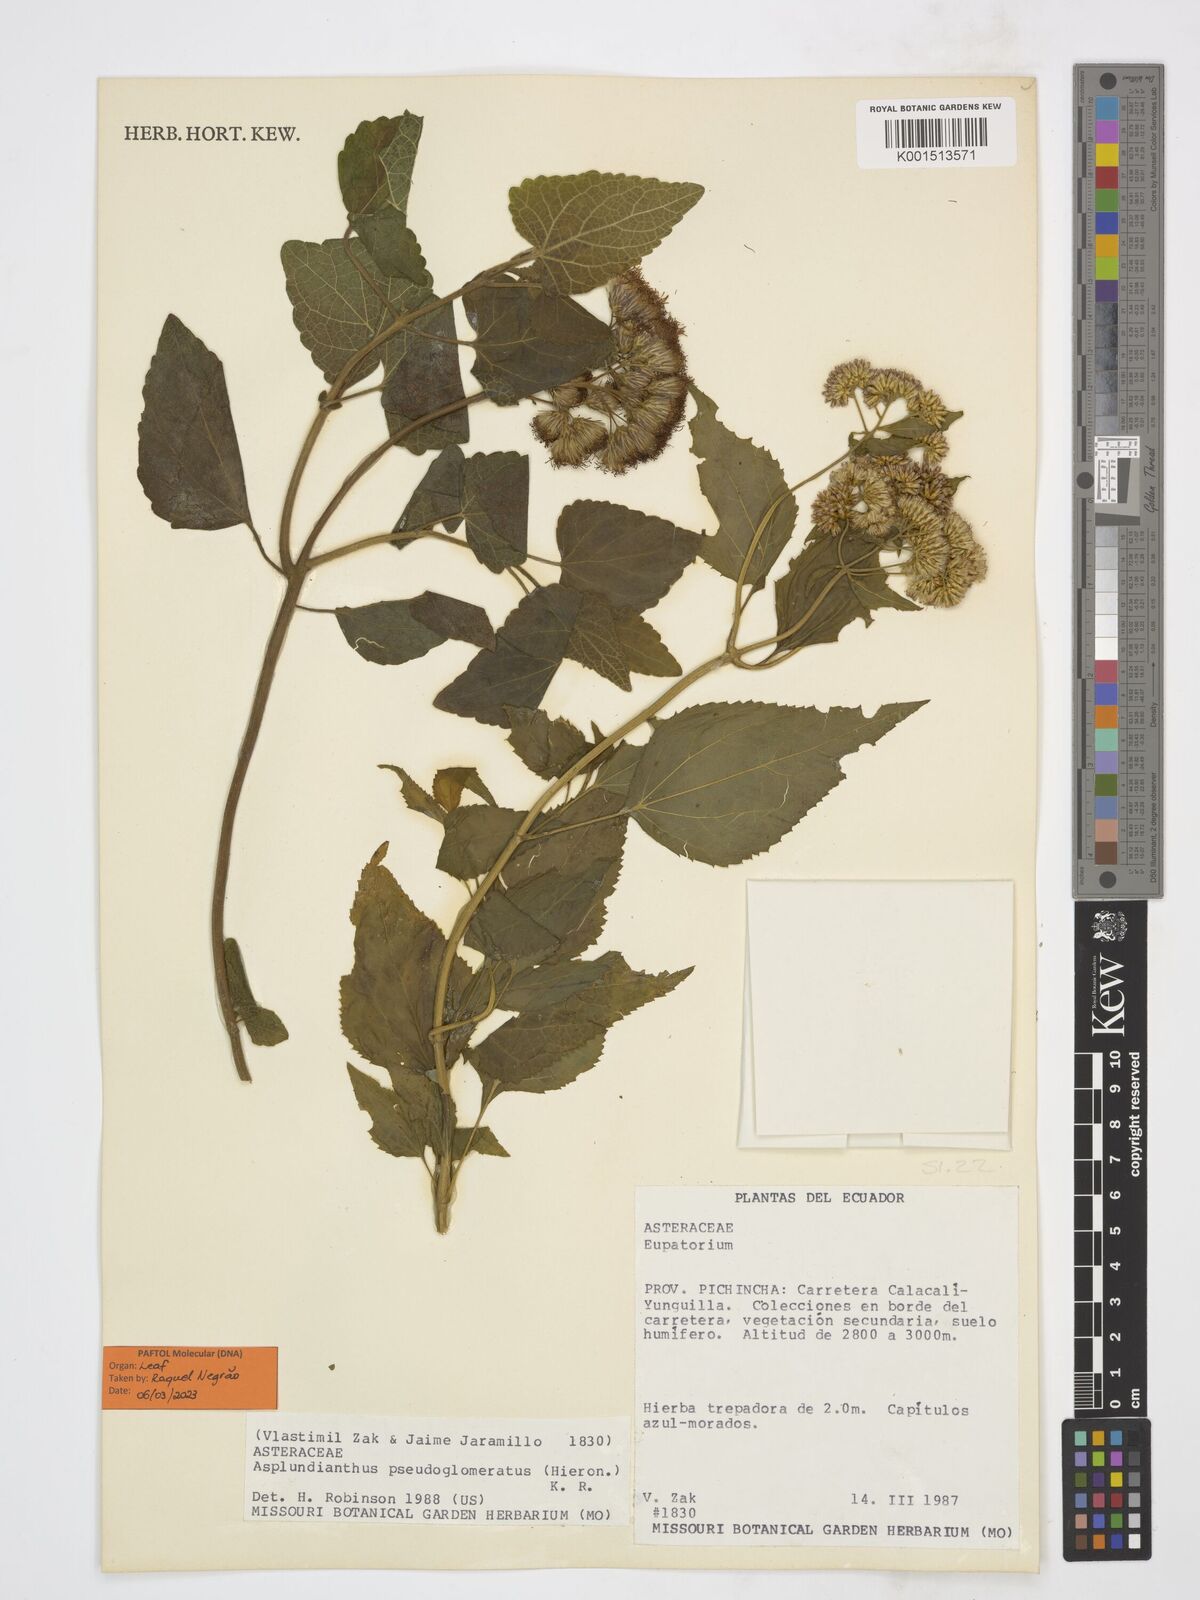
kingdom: Plantae
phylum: Tracheophyta
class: Magnoliopsida
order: Asterales
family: Asteraceae
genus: Asplundianthus
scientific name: Asplundianthus pseudoglomeratus
